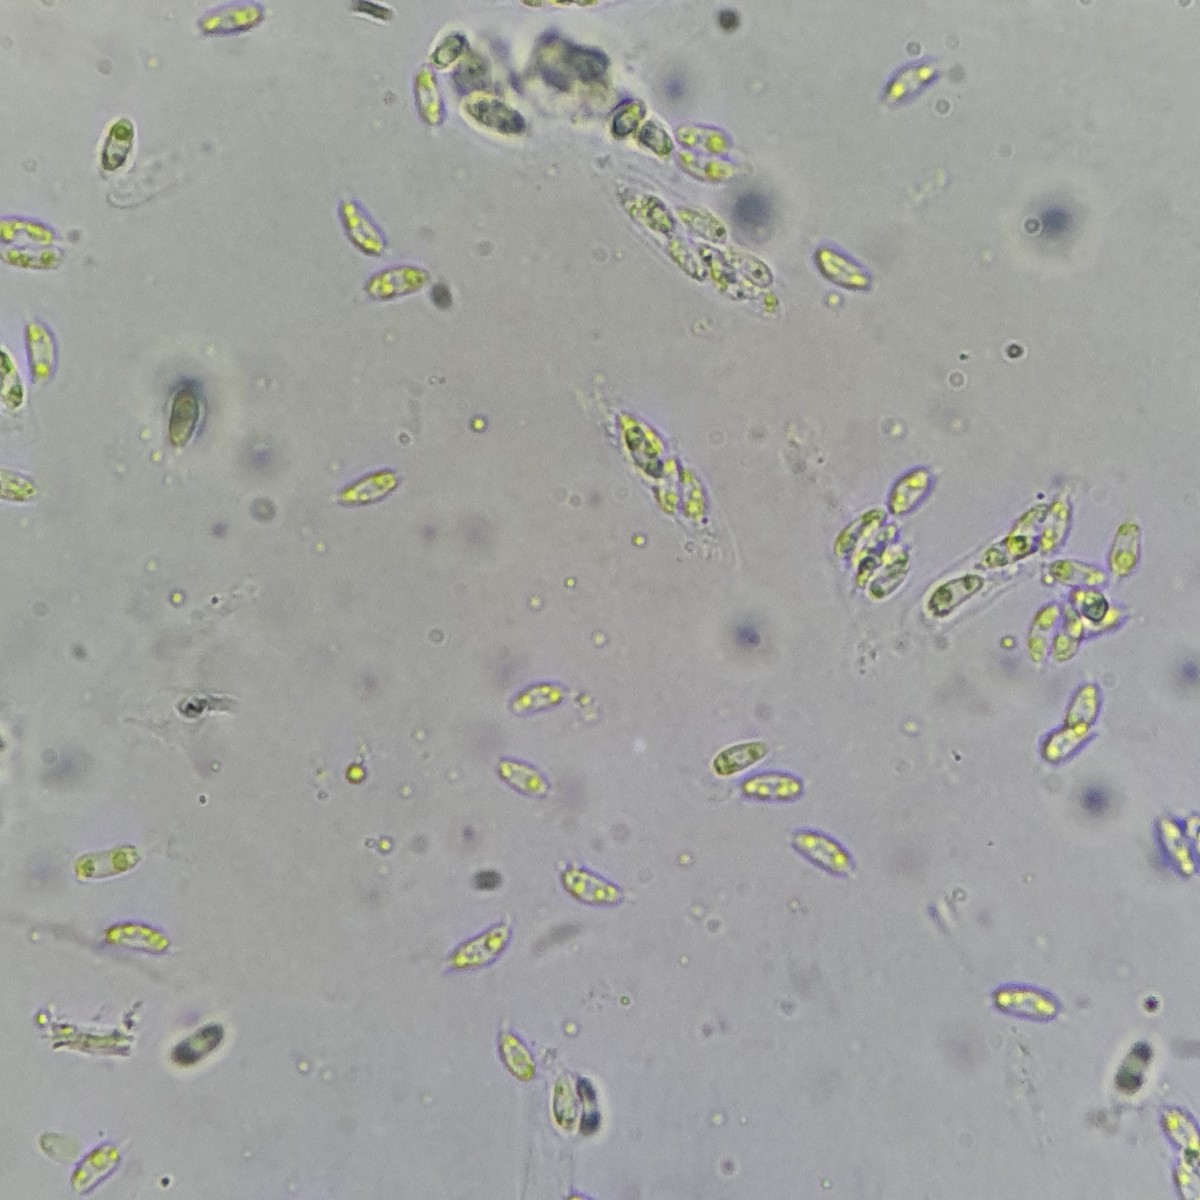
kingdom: Fungi
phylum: Ascomycota
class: Sordariomycetes
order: Diaporthales
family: Gnomoniaceae
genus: Gnomoniella
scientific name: Gnomoniella rubicola
